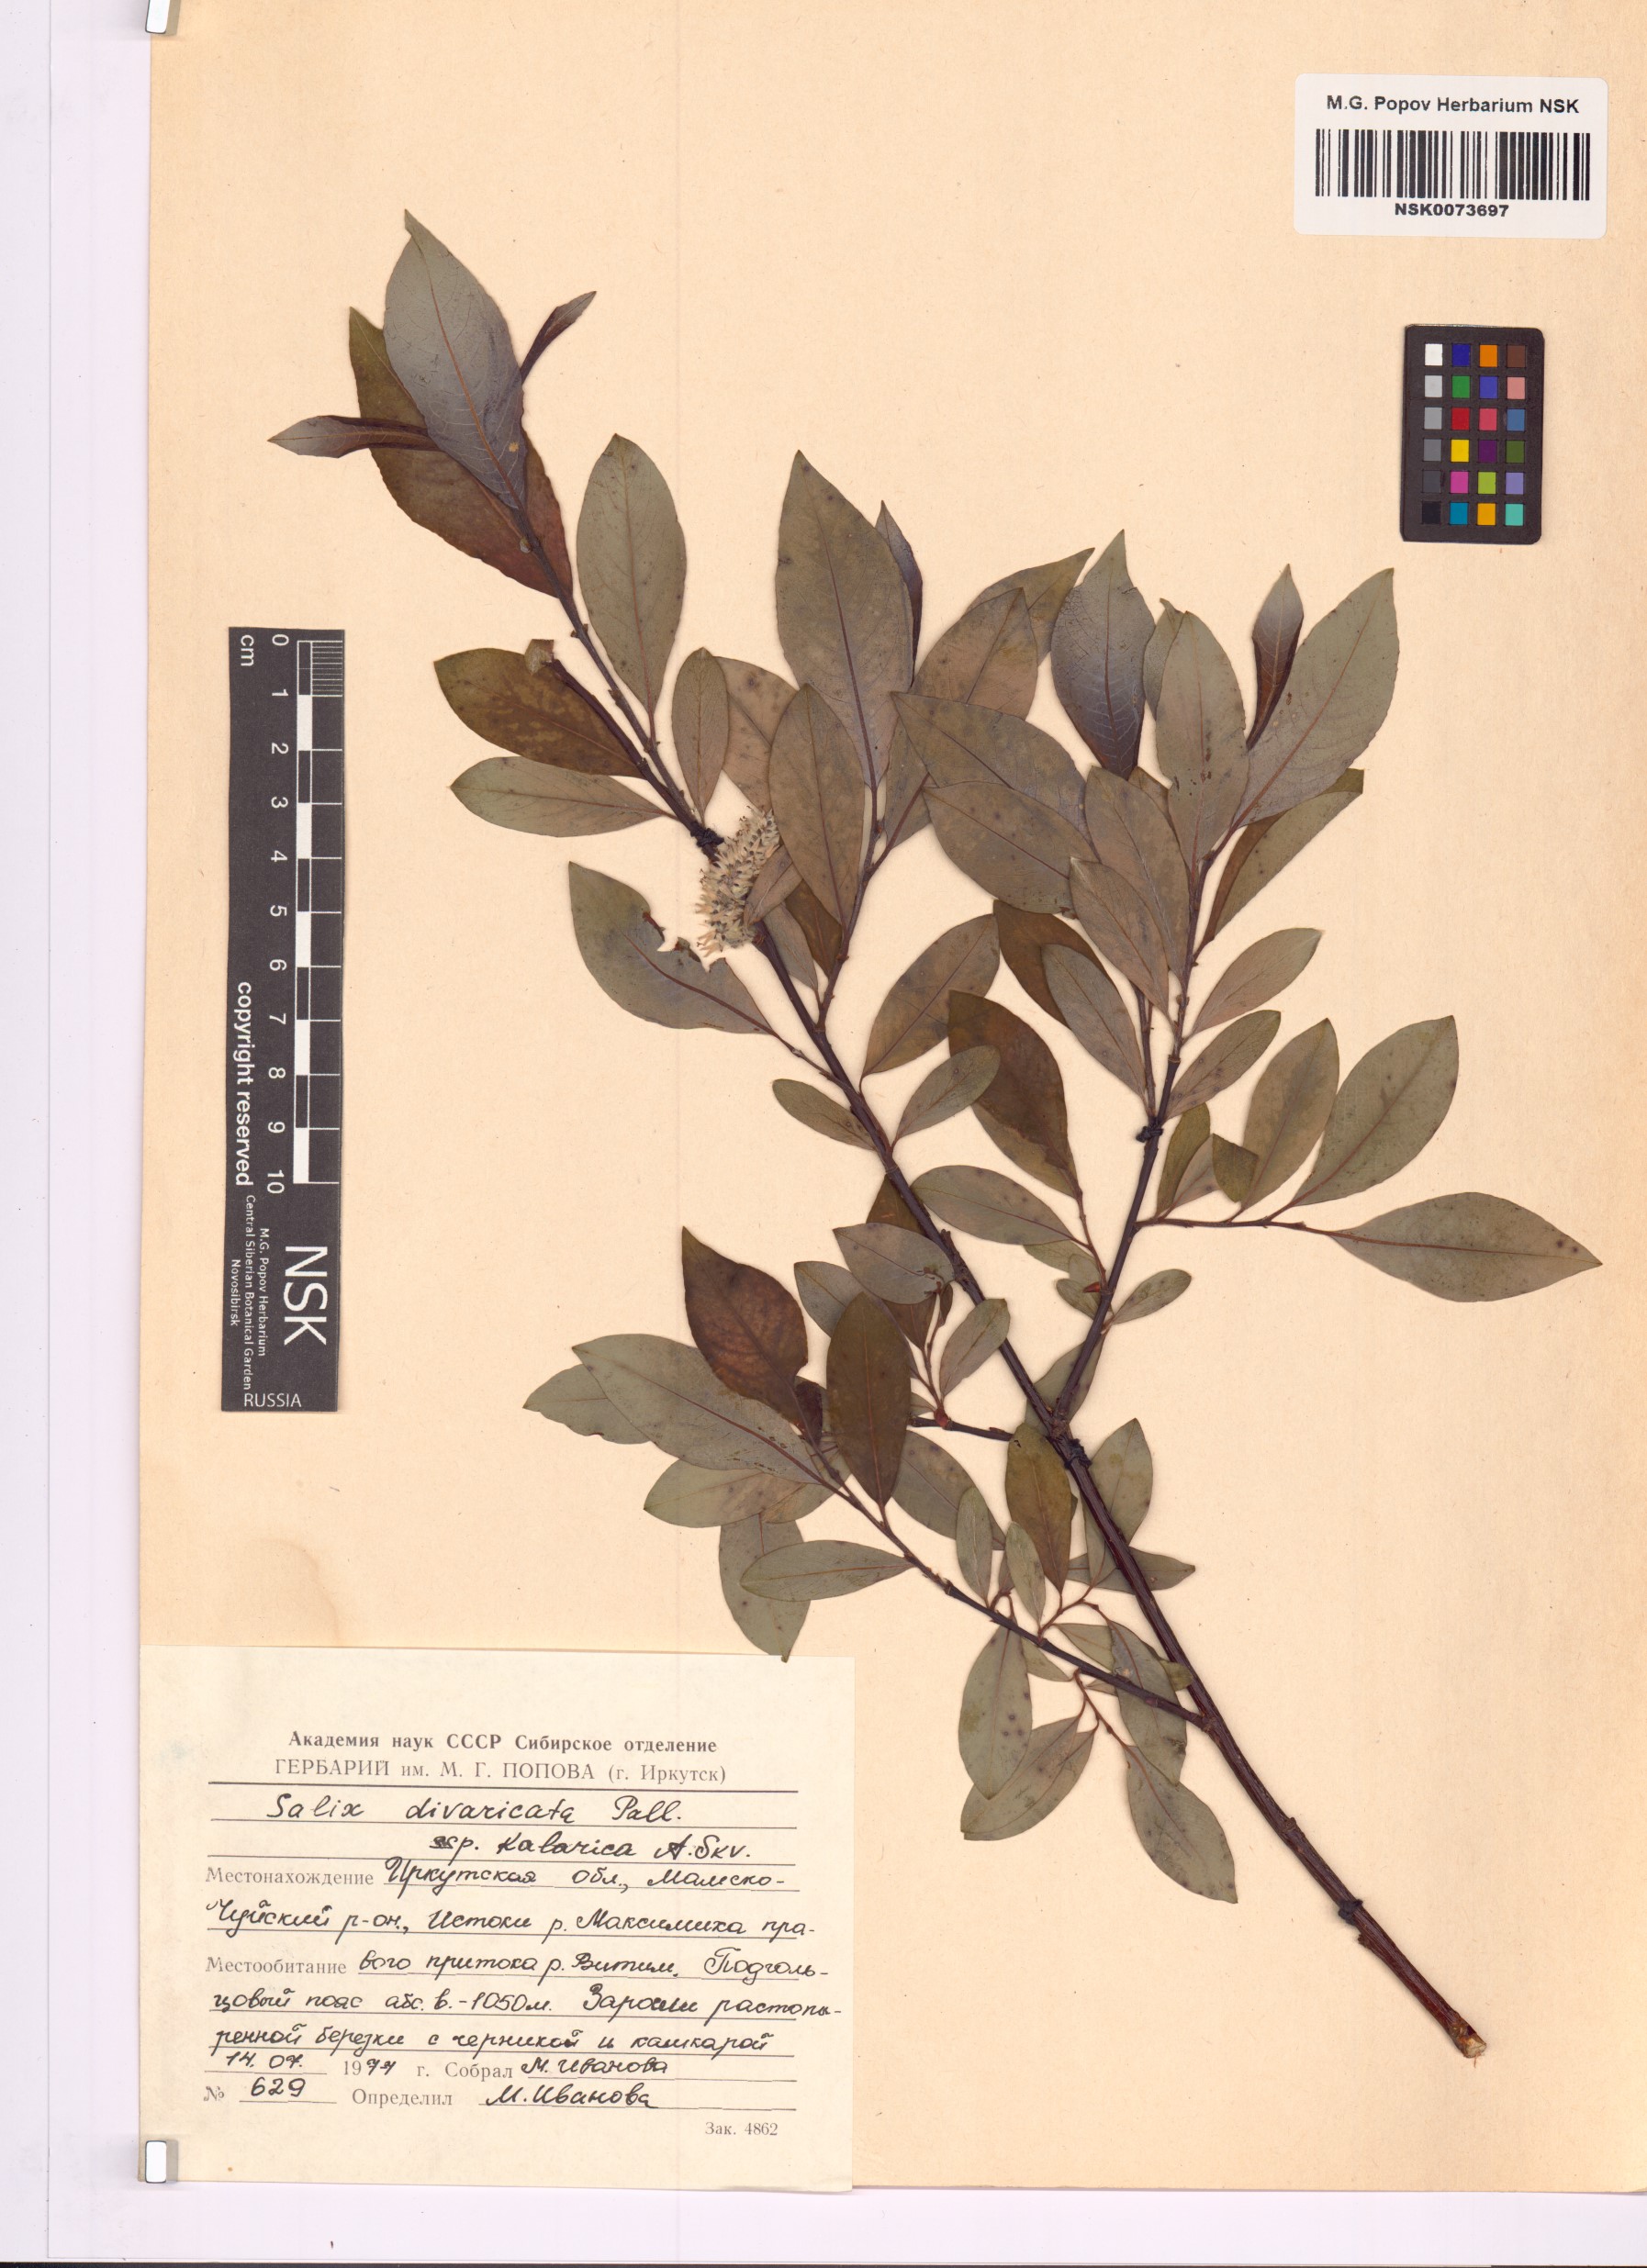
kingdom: Plantae
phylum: Tracheophyta
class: Magnoliopsida
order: Malpighiales
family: Salicaceae
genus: Salix
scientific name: Salix kalarica
